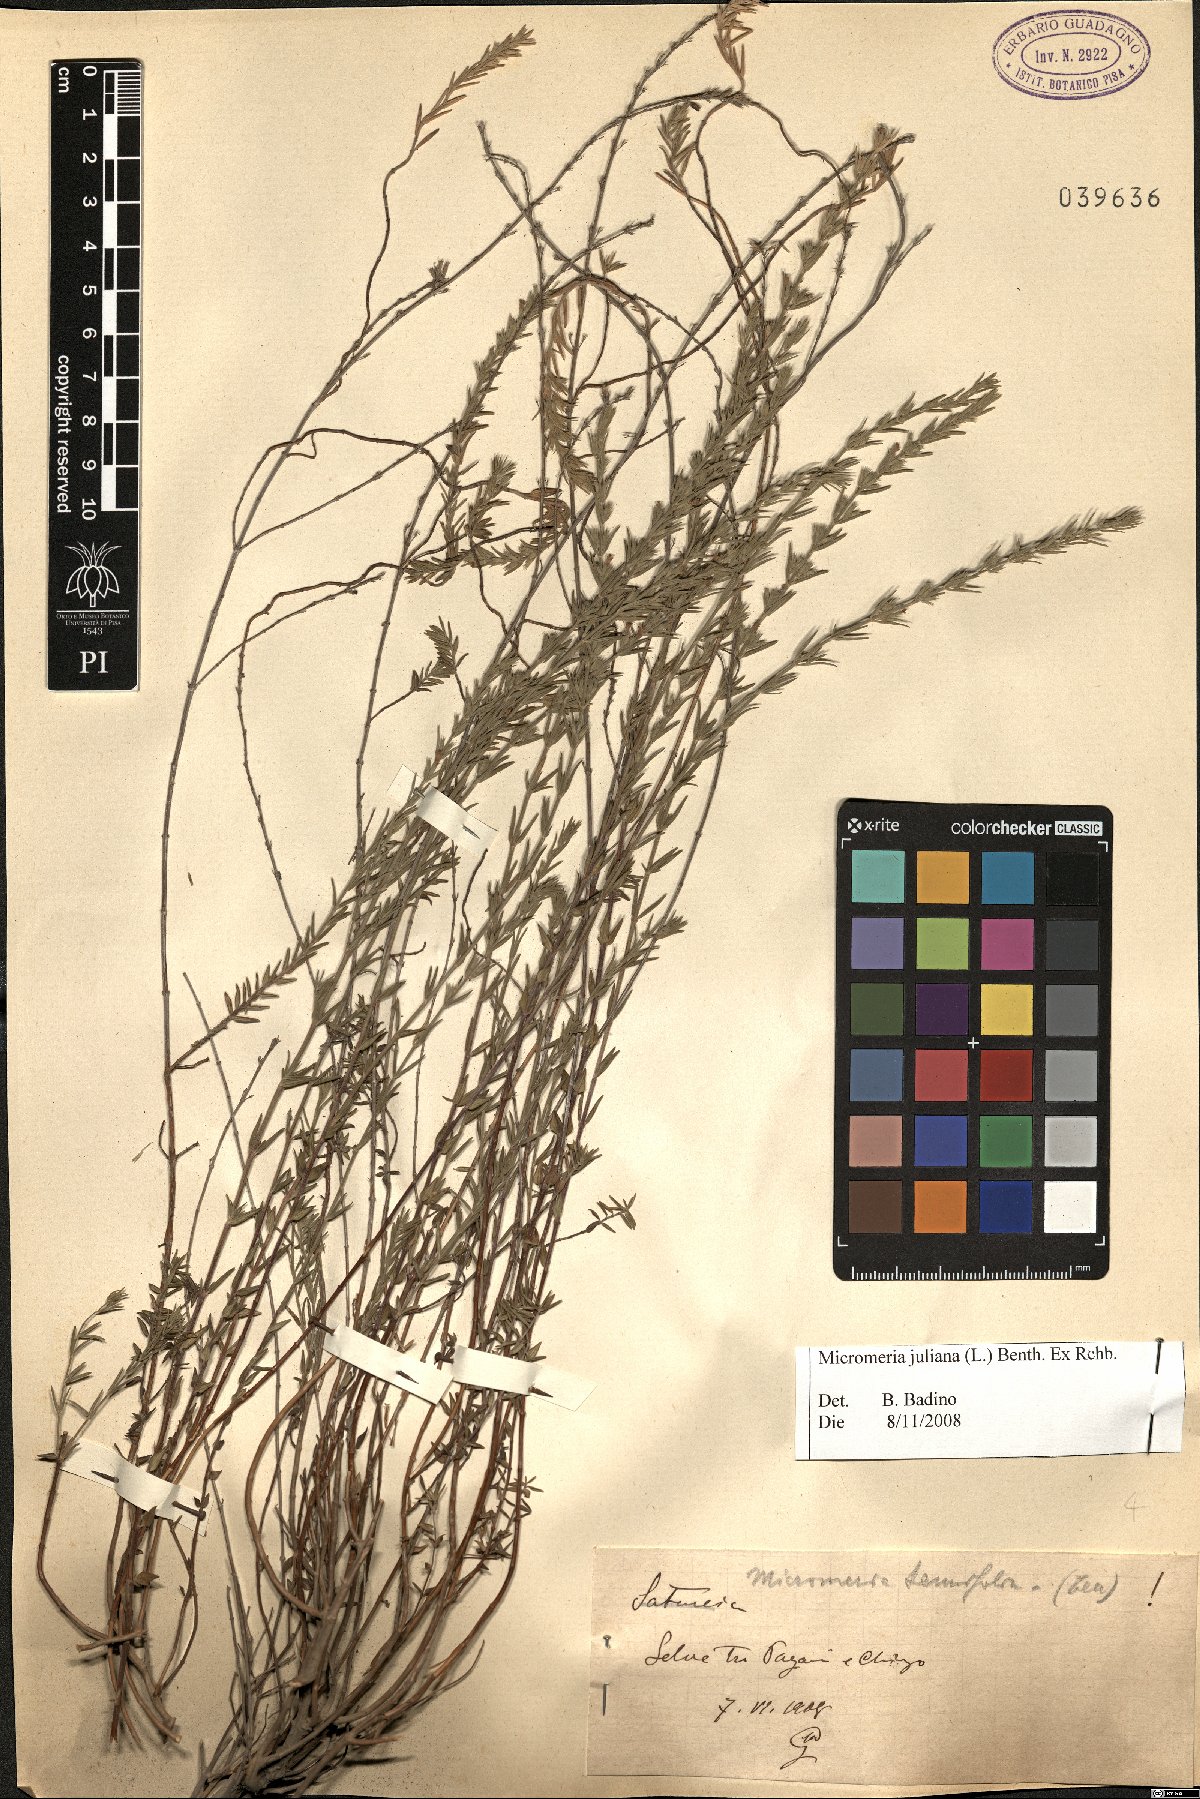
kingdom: Plantae
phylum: Tracheophyta
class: Magnoliopsida
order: Lamiales
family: Lamiaceae
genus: Micromeria
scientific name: Micromeria juliana
